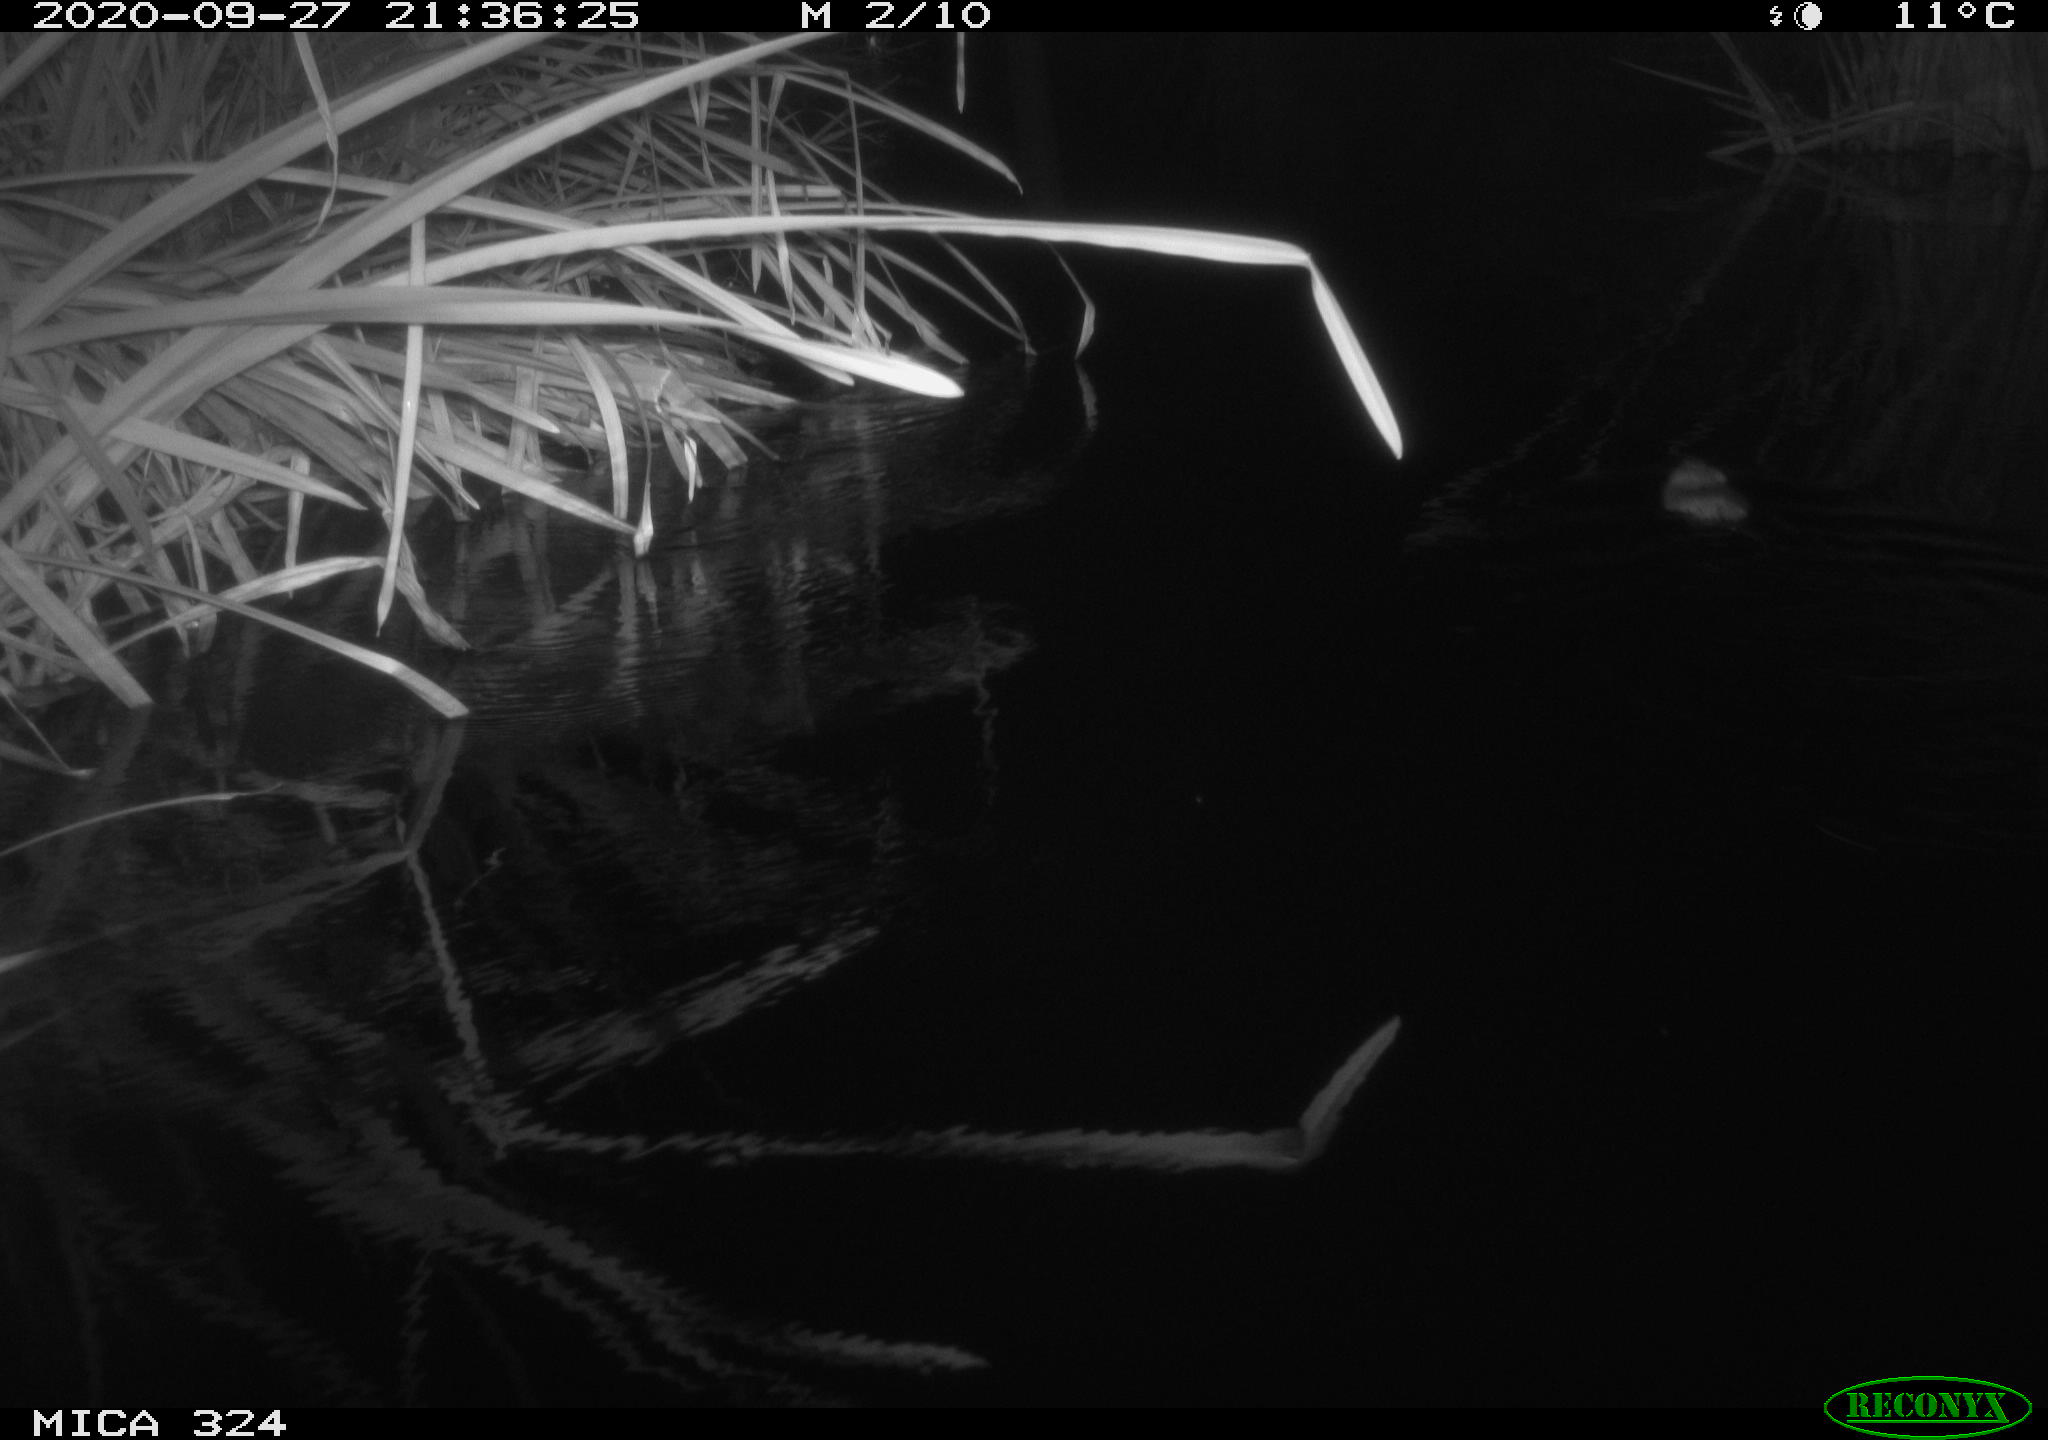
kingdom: Animalia
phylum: Chordata
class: Mammalia
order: Rodentia
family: Cricetidae
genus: Ondatra
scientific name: Ondatra zibethicus
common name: Muskrat
